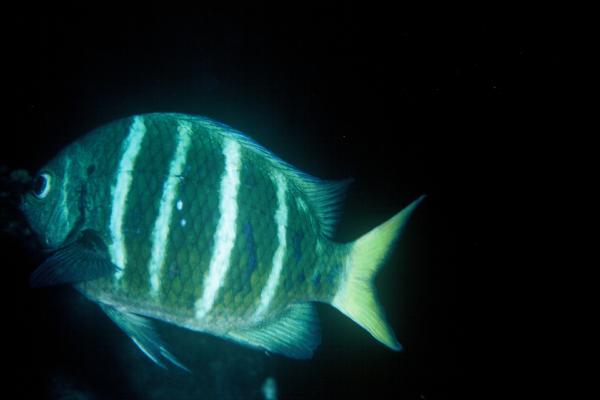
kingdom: Animalia
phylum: Chordata
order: Perciformes
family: Pomacentridae
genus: Abudefduf
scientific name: Abudefduf notatus
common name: Yellow-tail sergeant
